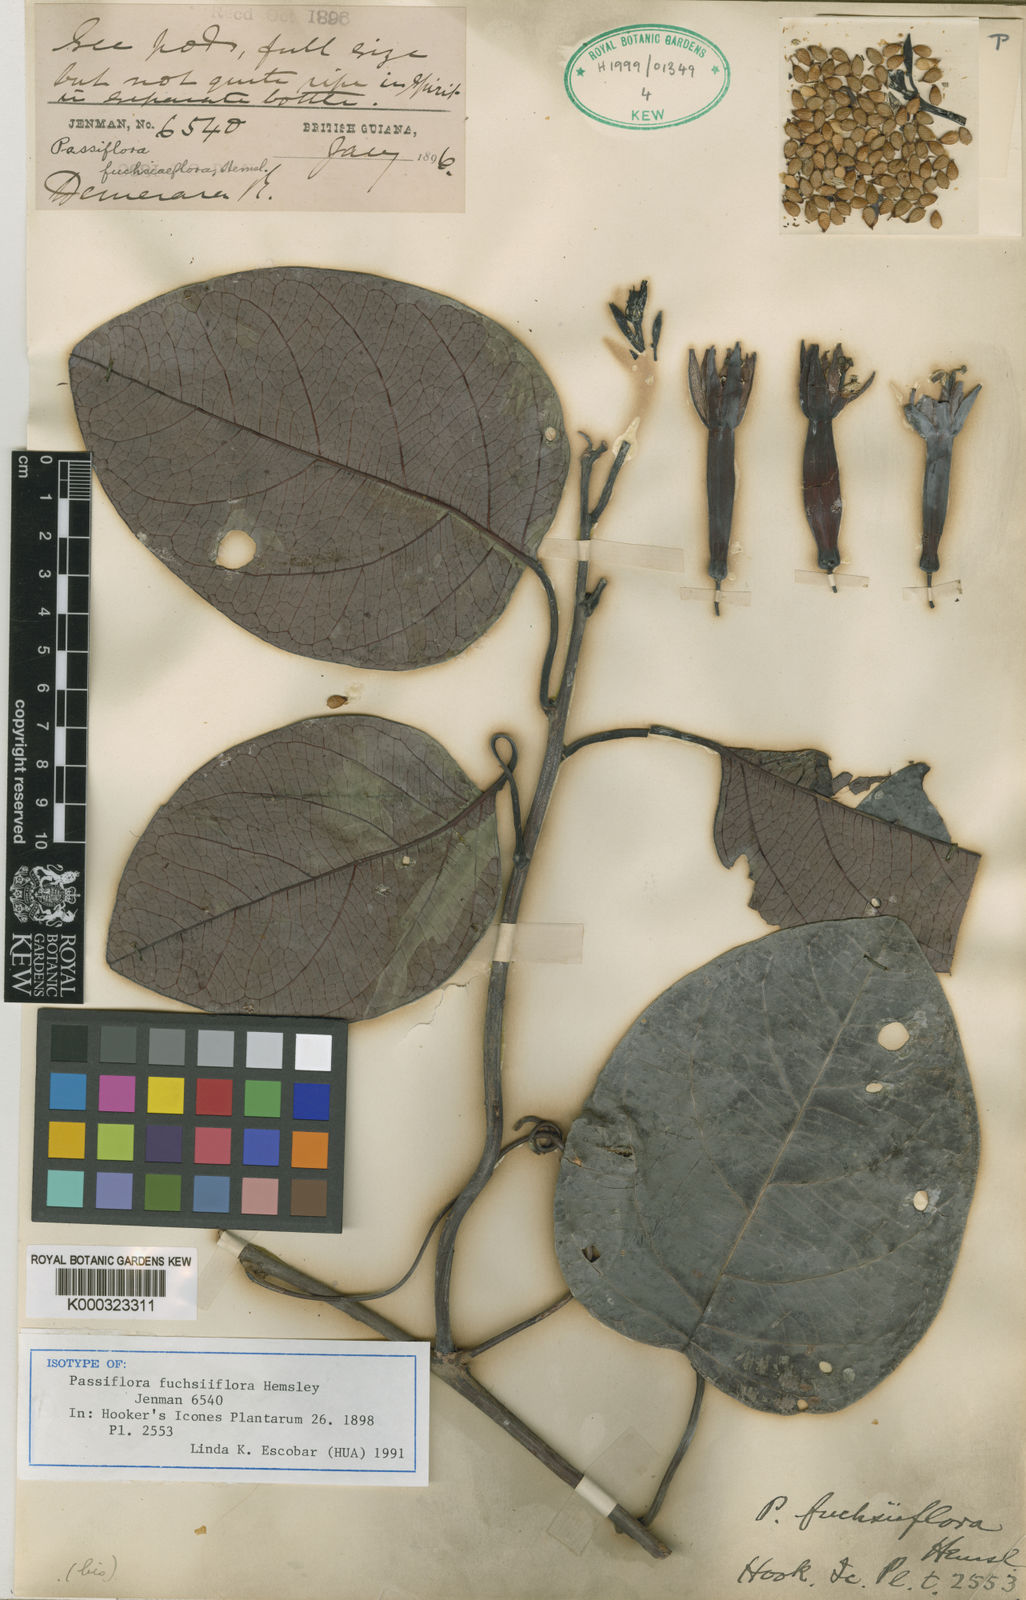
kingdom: Plantae
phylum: Tracheophyta
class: Magnoliopsida
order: Malpighiales
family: Passifloraceae
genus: Passiflora
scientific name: Passiflora fuchsiiflora
